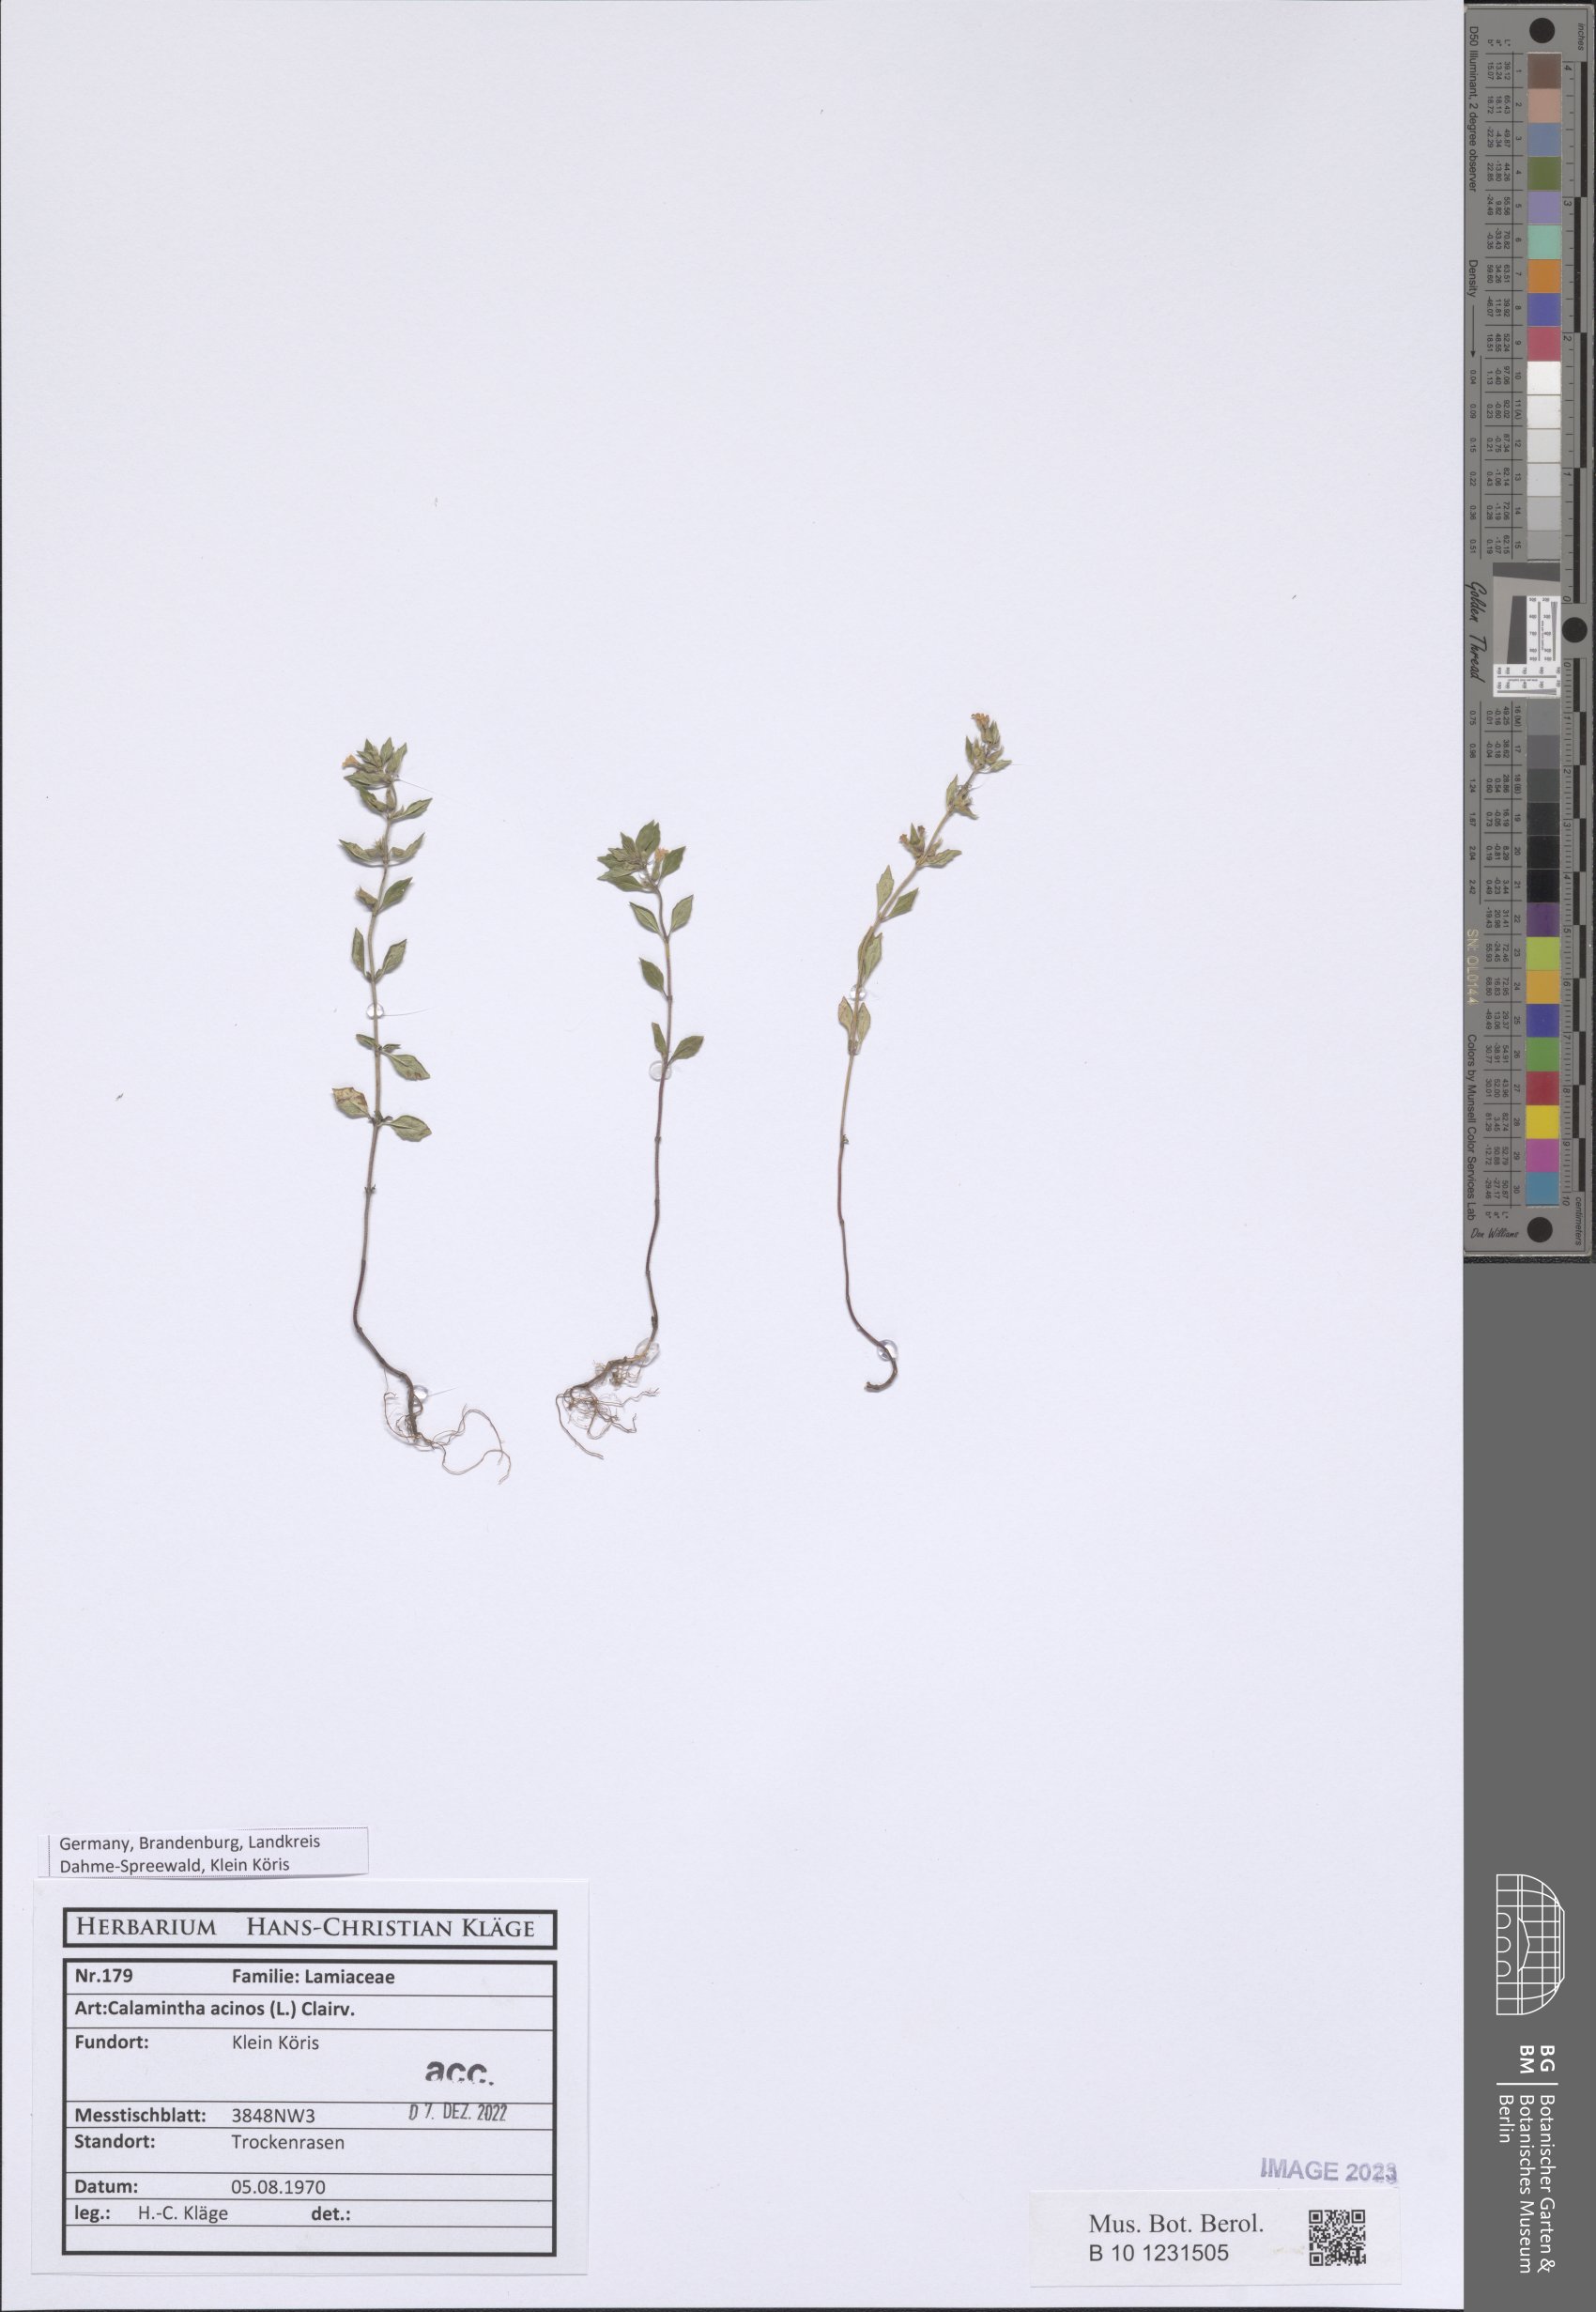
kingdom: Plantae
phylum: Tracheophyta
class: Magnoliopsida
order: Lamiales
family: Lamiaceae
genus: Clinopodium
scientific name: Clinopodium acinos
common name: Basil thyme
